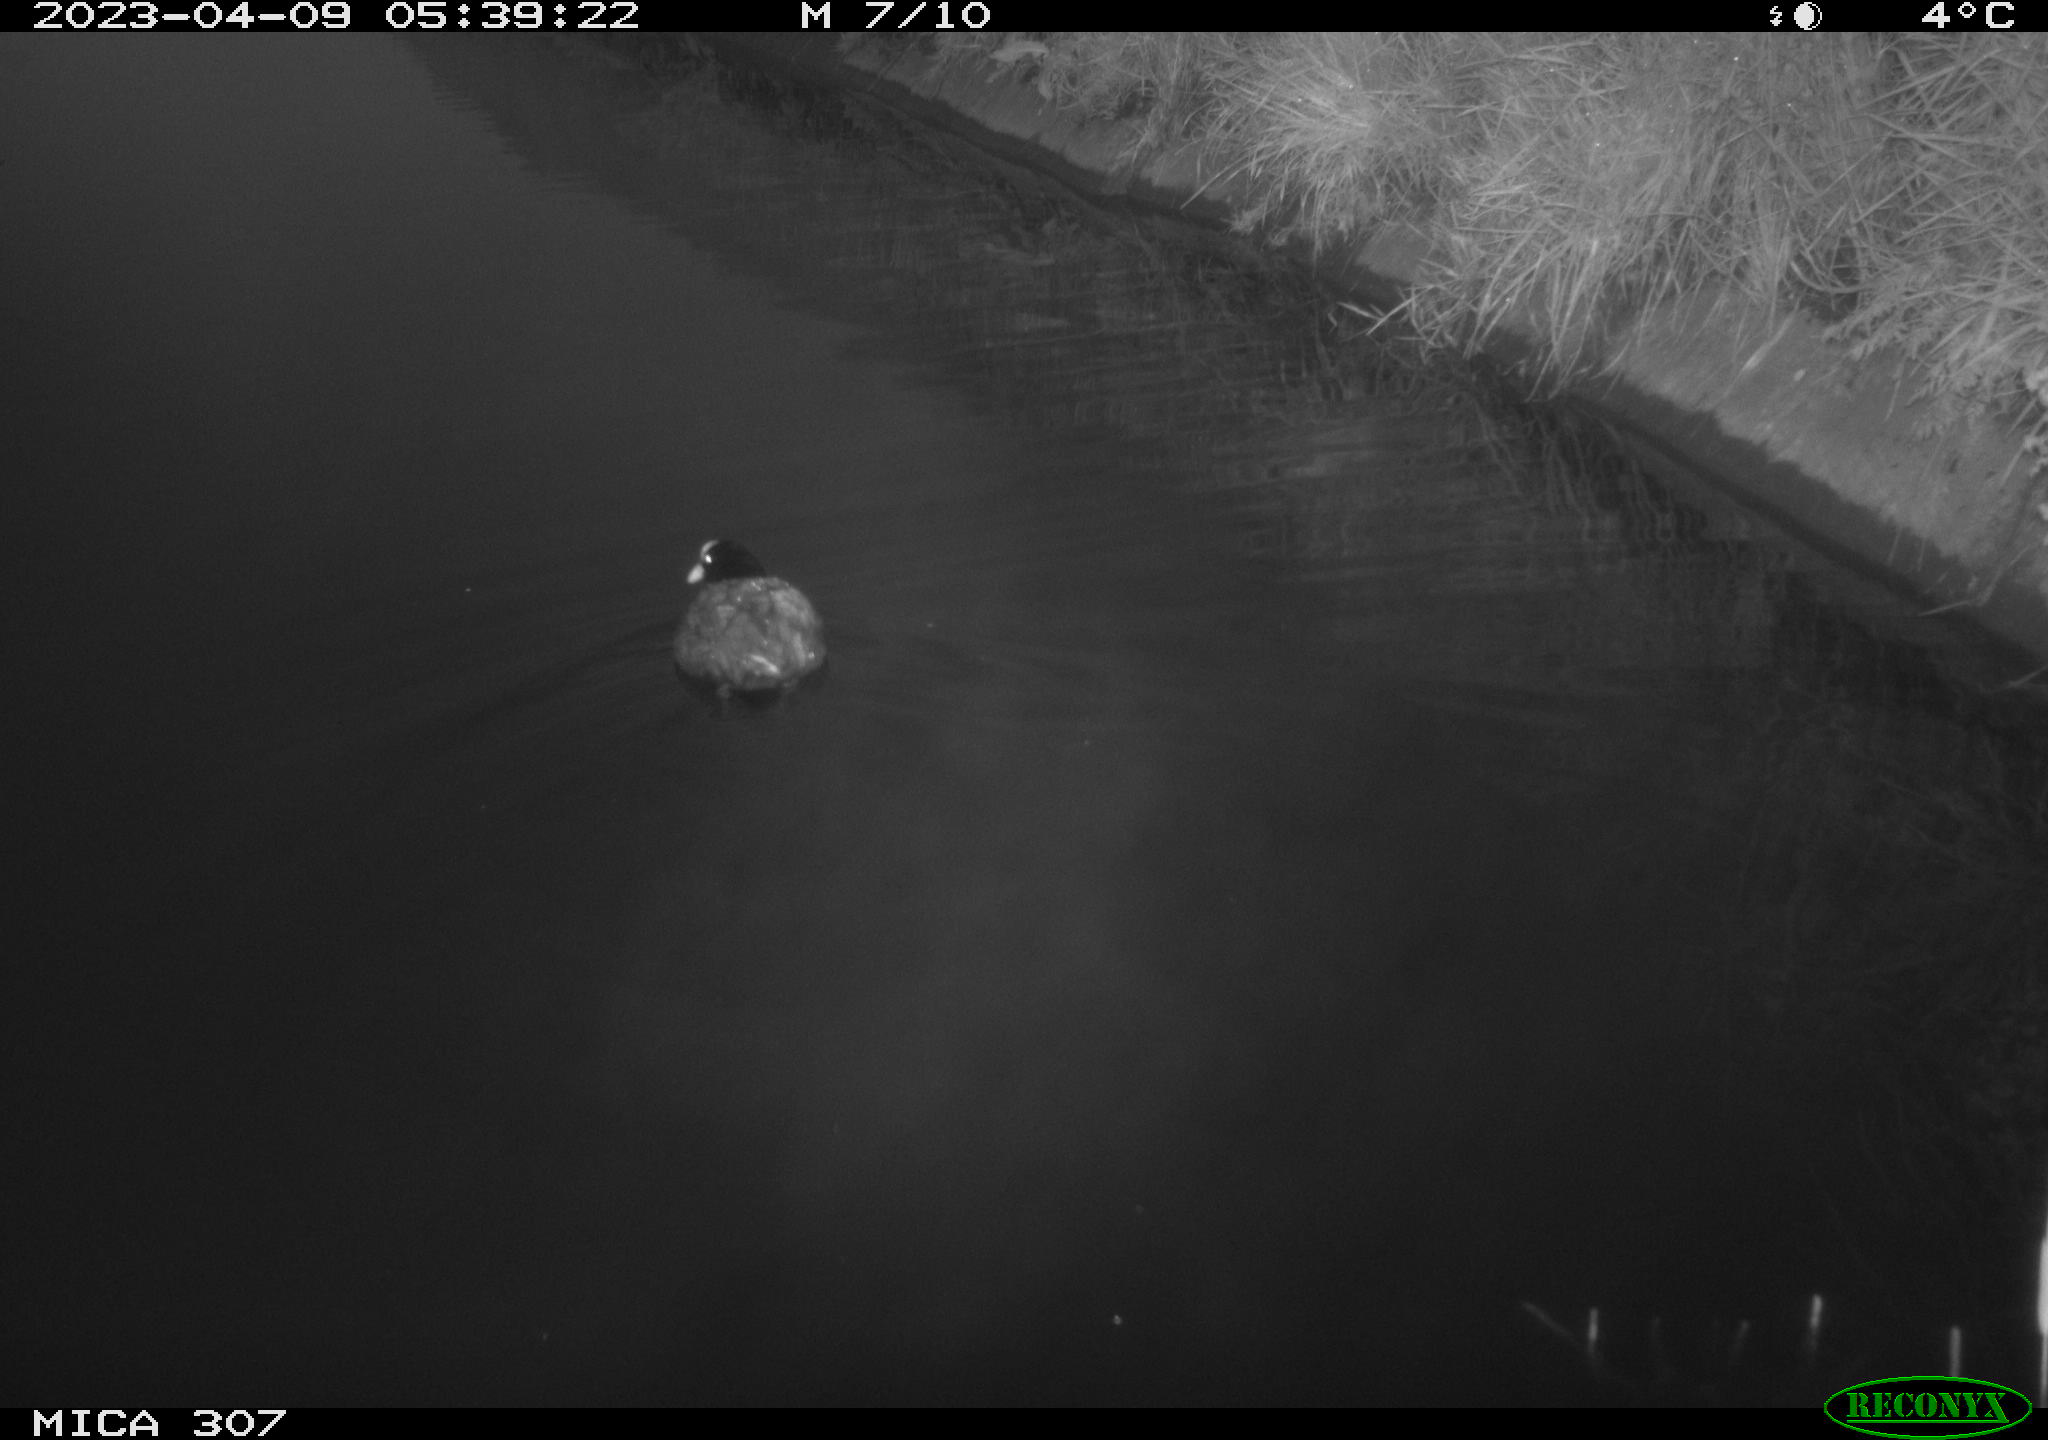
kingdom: Animalia
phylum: Chordata
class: Aves
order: Gruiformes
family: Rallidae
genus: Fulica
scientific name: Fulica atra
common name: Eurasian coot
